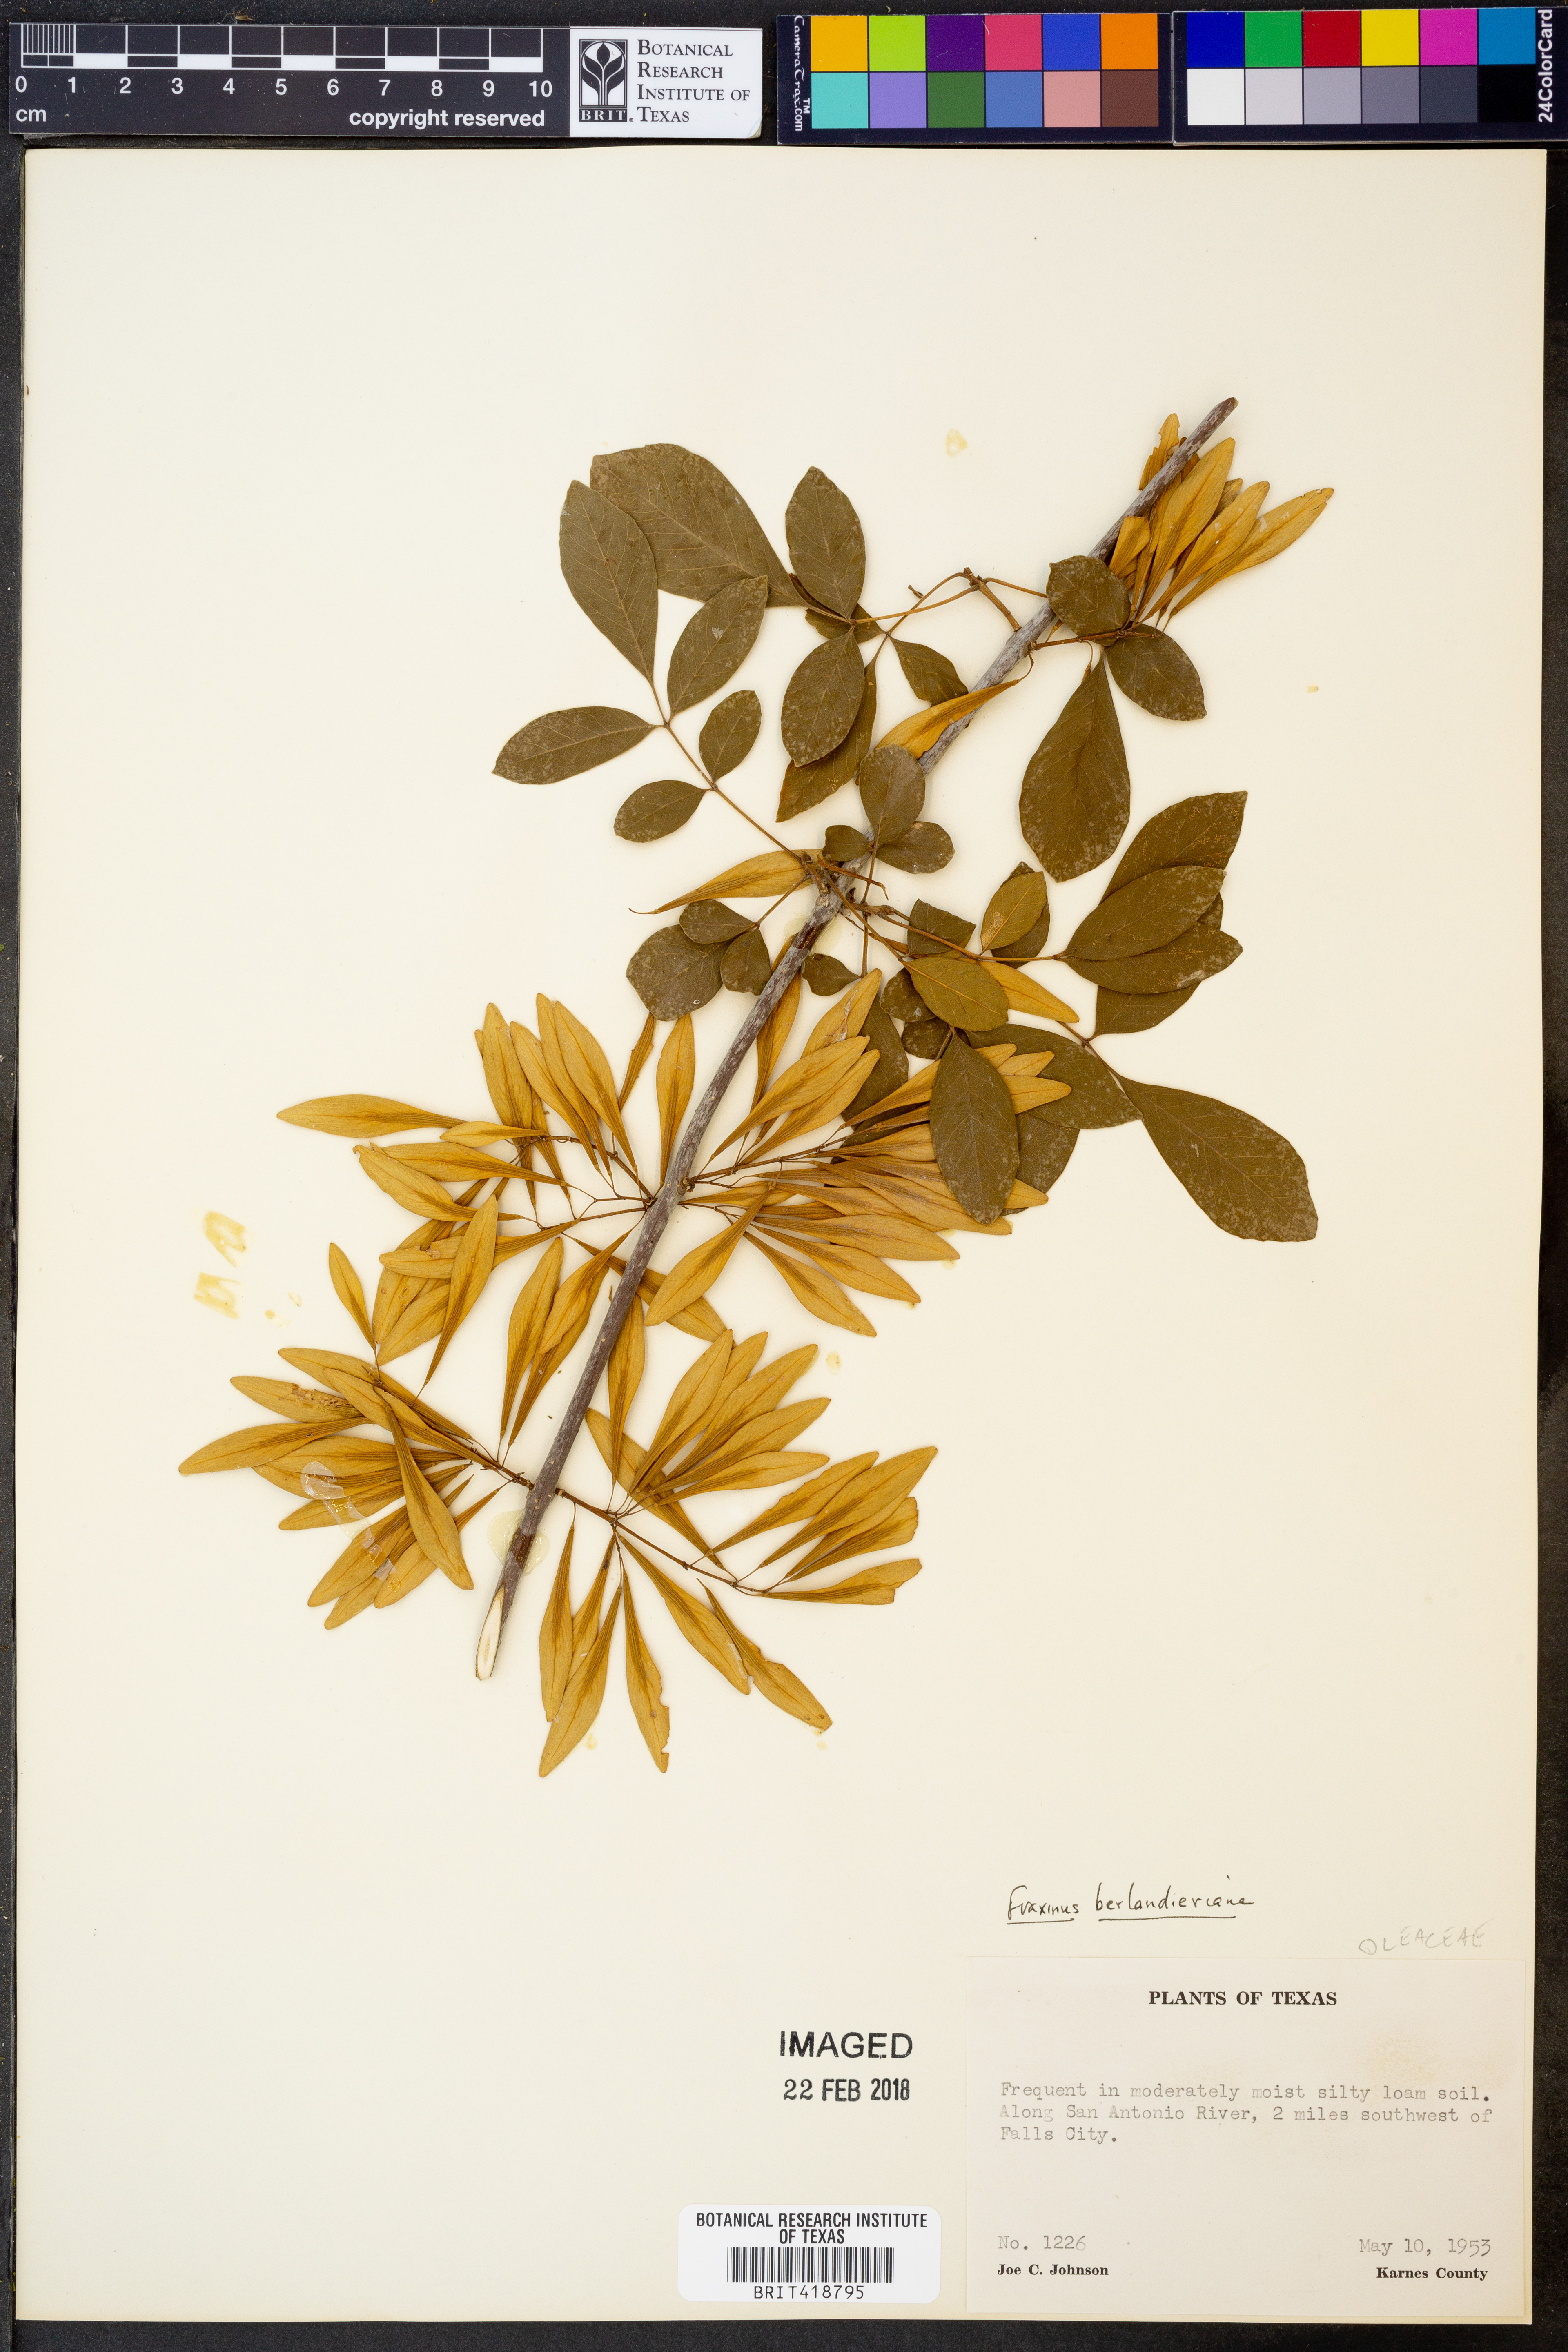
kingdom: Plantae
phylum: Tracheophyta
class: Magnoliopsida
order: Lamiales
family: Oleaceae
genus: Fraxinus
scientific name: Fraxinus berlandieriana
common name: Berlandier ash
